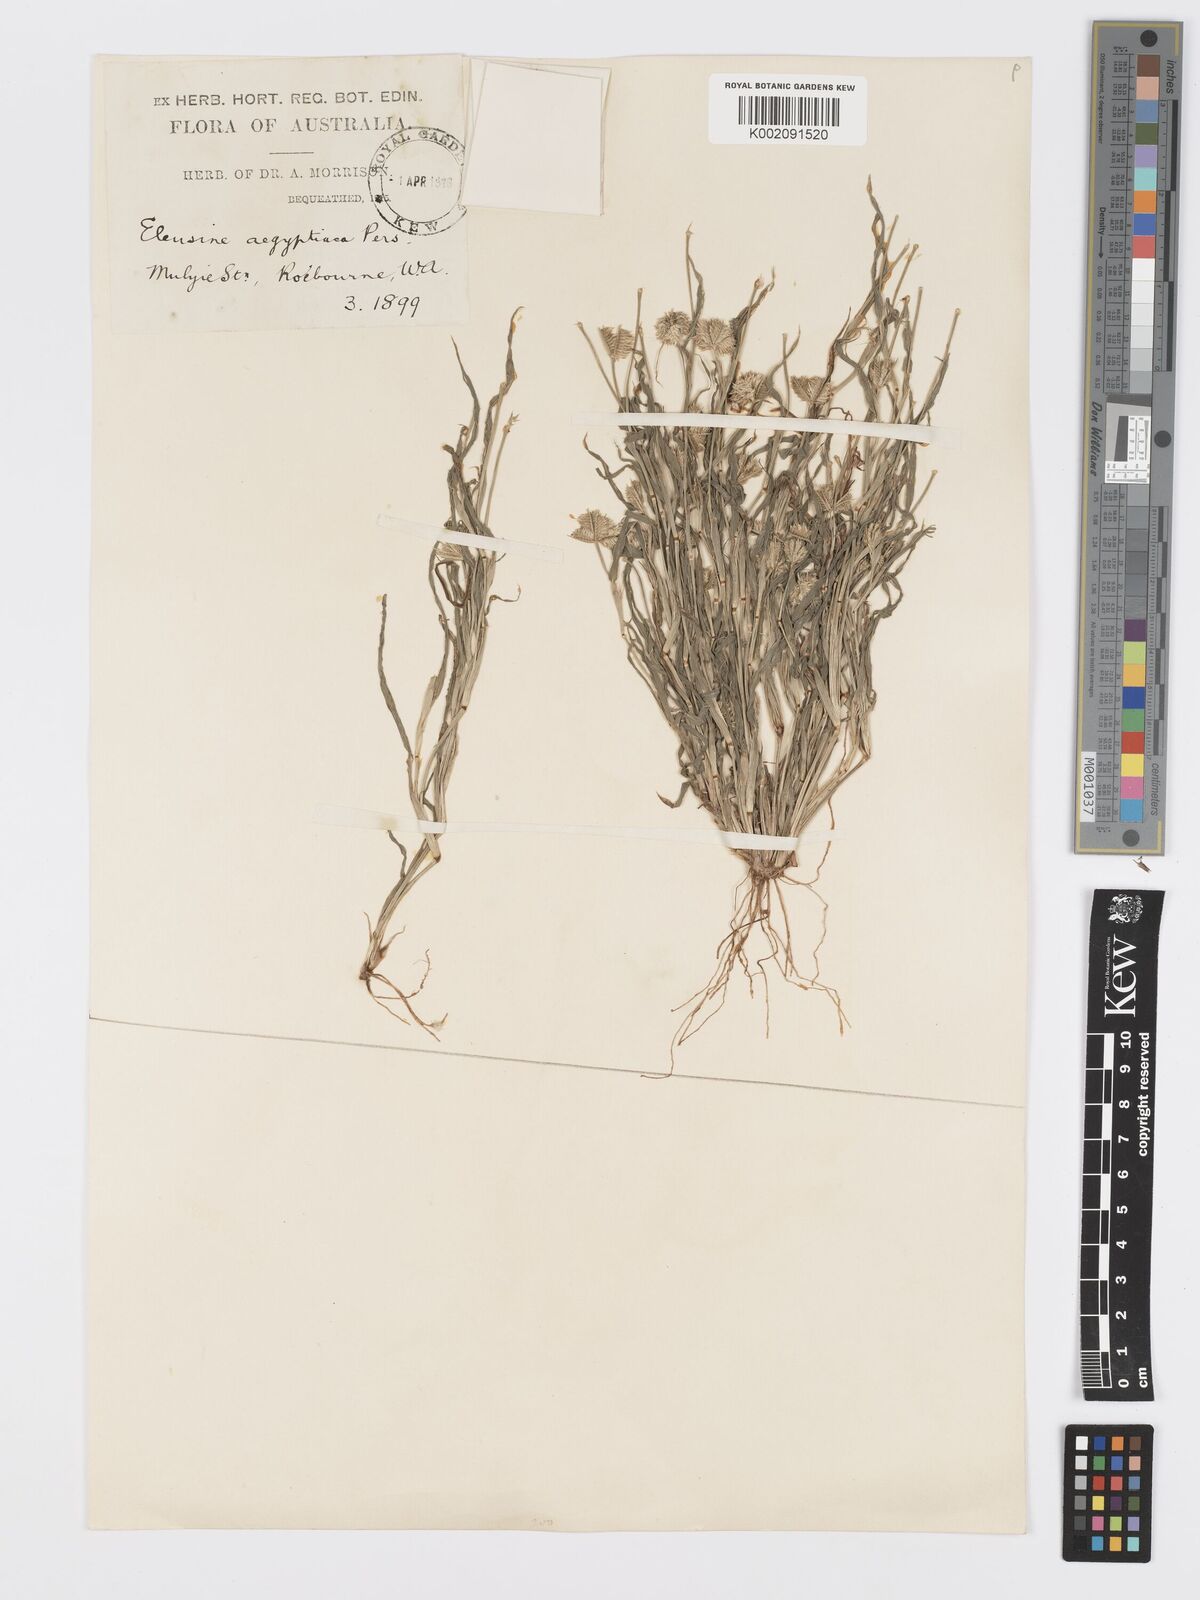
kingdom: Plantae
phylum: Tracheophyta
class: Liliopsida
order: Poales
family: Poaceae
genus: Dactyloctenium
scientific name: Dactyloctenium radulans
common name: Button-grass
